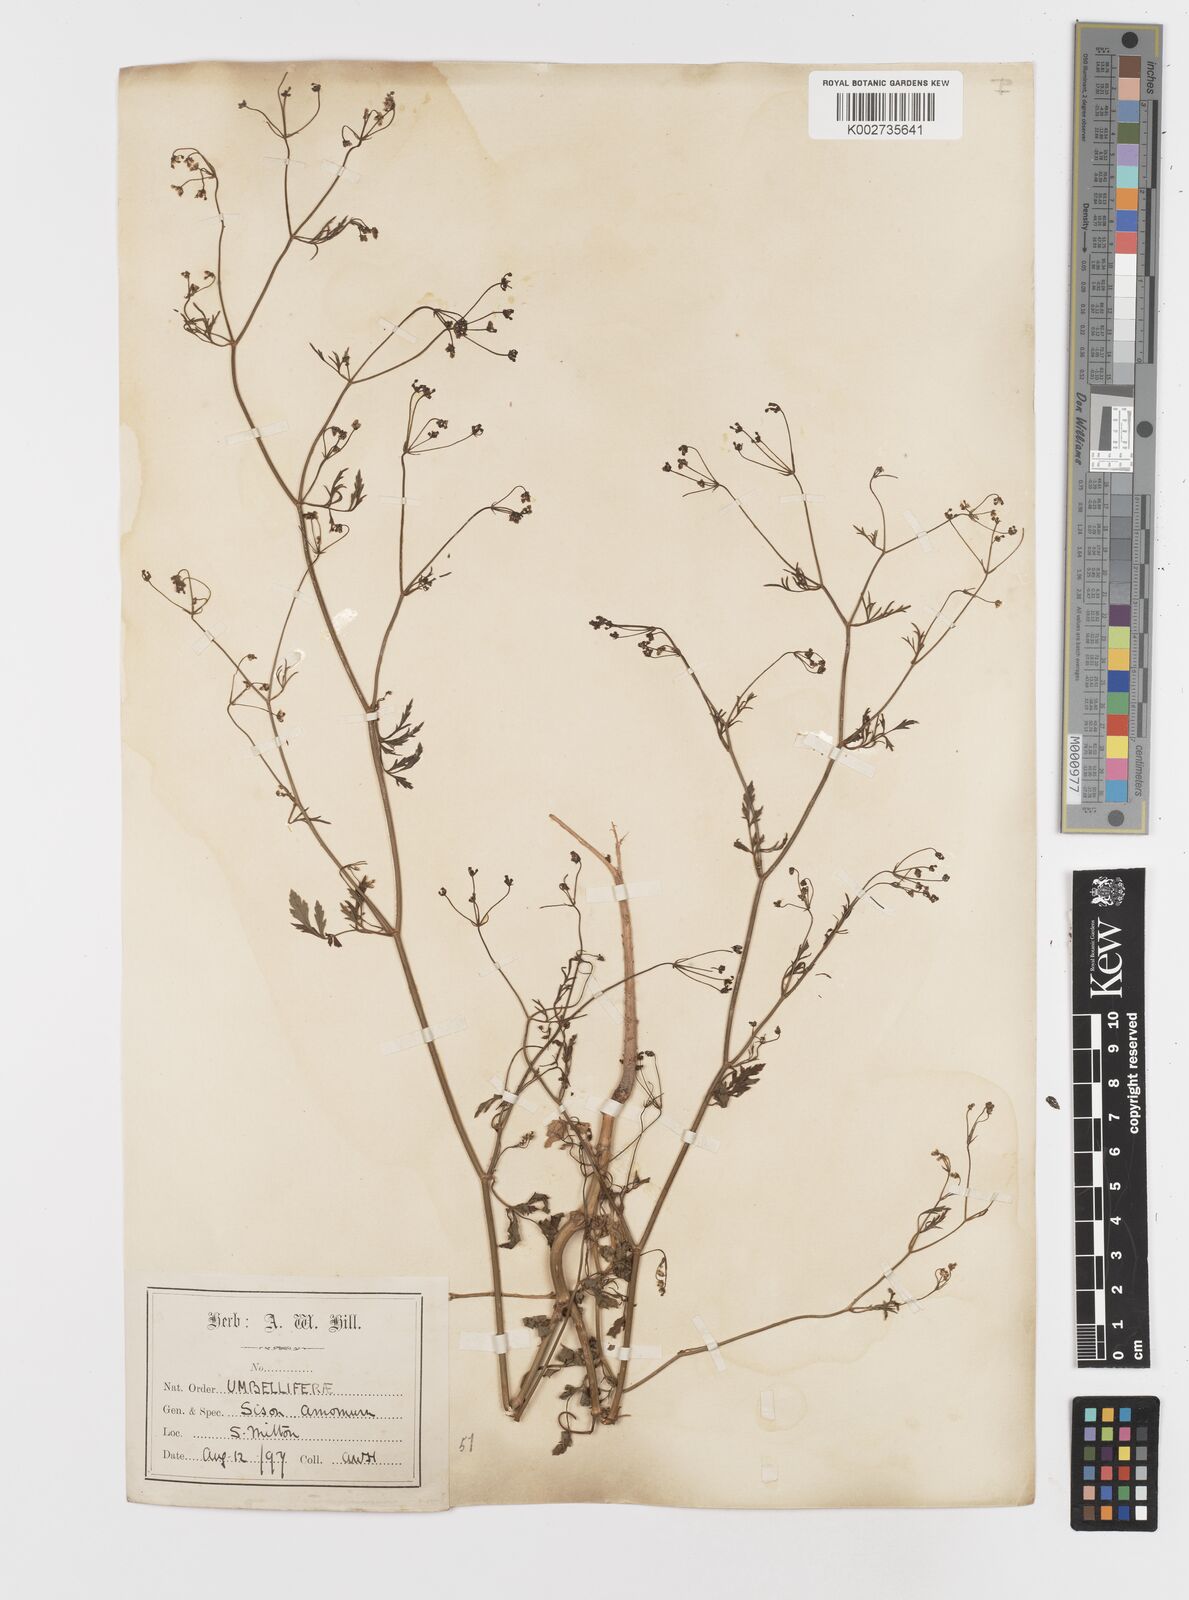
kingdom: Plantae
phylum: Tracheophyta
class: Magnoliopsida
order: Apiales
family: Apiaceae
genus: Sison
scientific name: Sison amomum
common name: Stone-parsley
